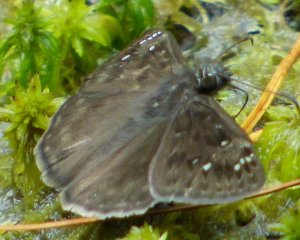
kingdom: Animalia
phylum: Arthropoda
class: Insecta
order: Lepidoptera
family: Hesperiidae
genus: Gesta
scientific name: Gesta
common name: Horace's Duskywing
